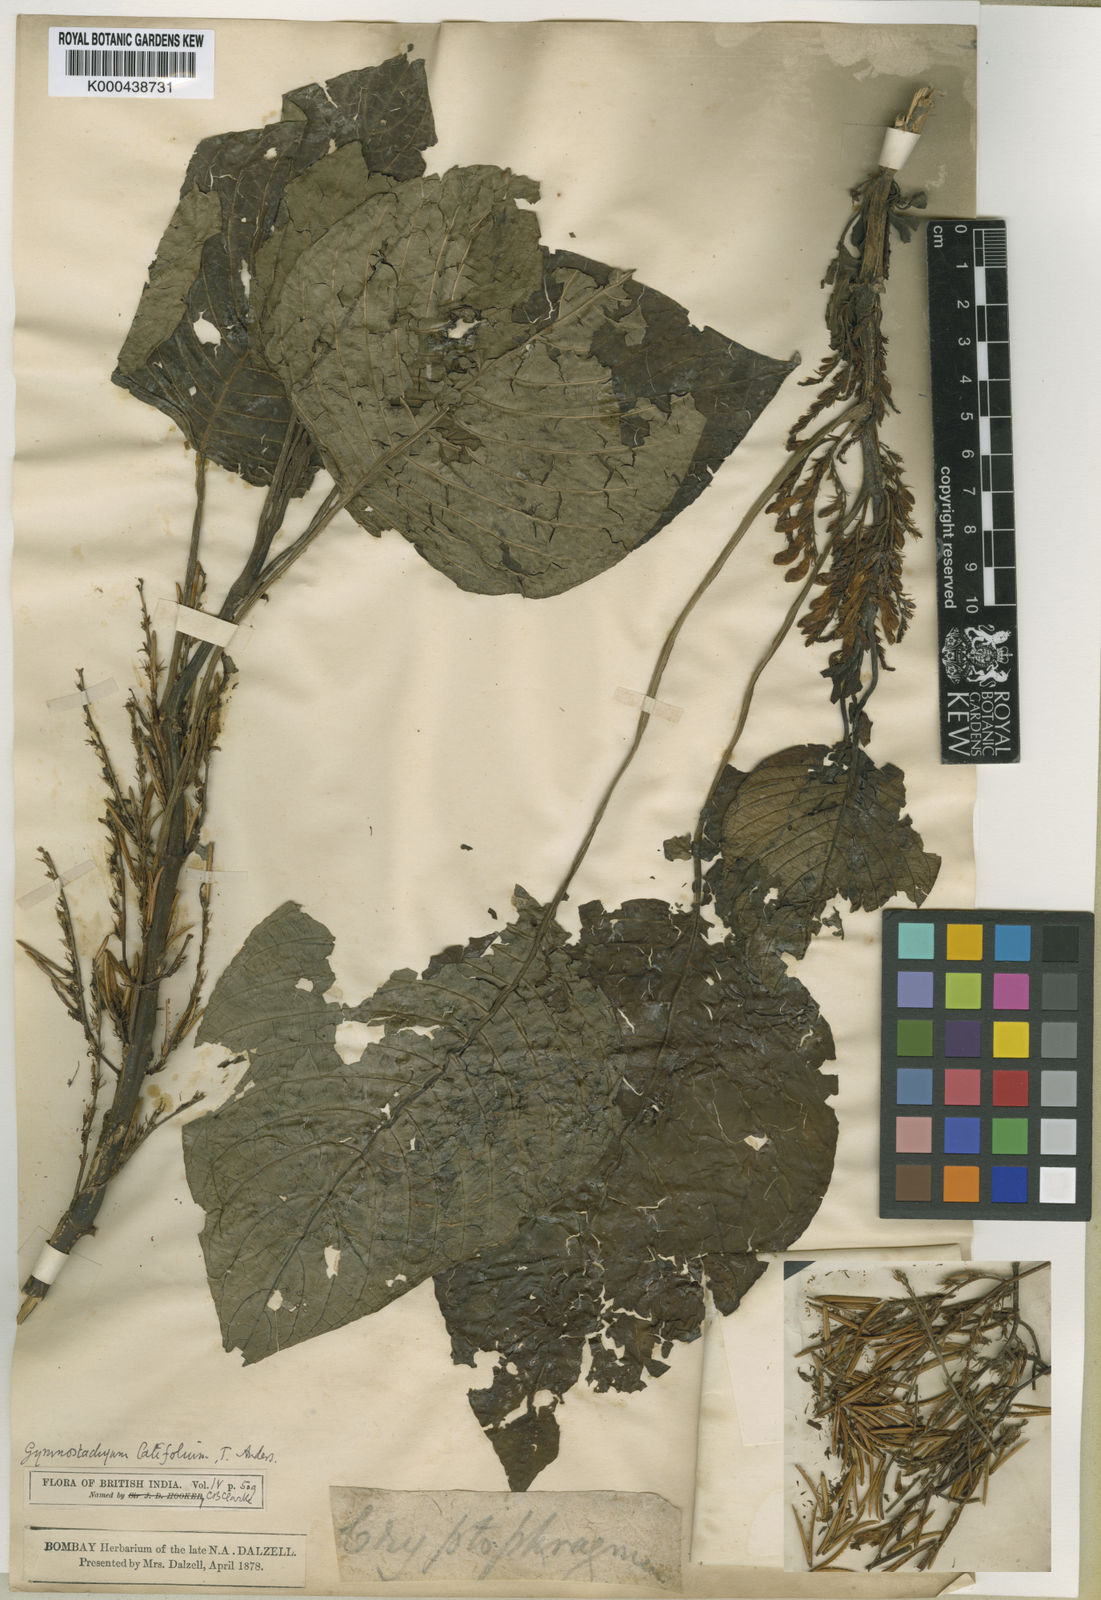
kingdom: Plantae
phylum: Tracheophyta
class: Magnoliopsida
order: Lamiales
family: Acanthaceae
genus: Gymnostachyum
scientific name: Gymnostachyum latifolium
